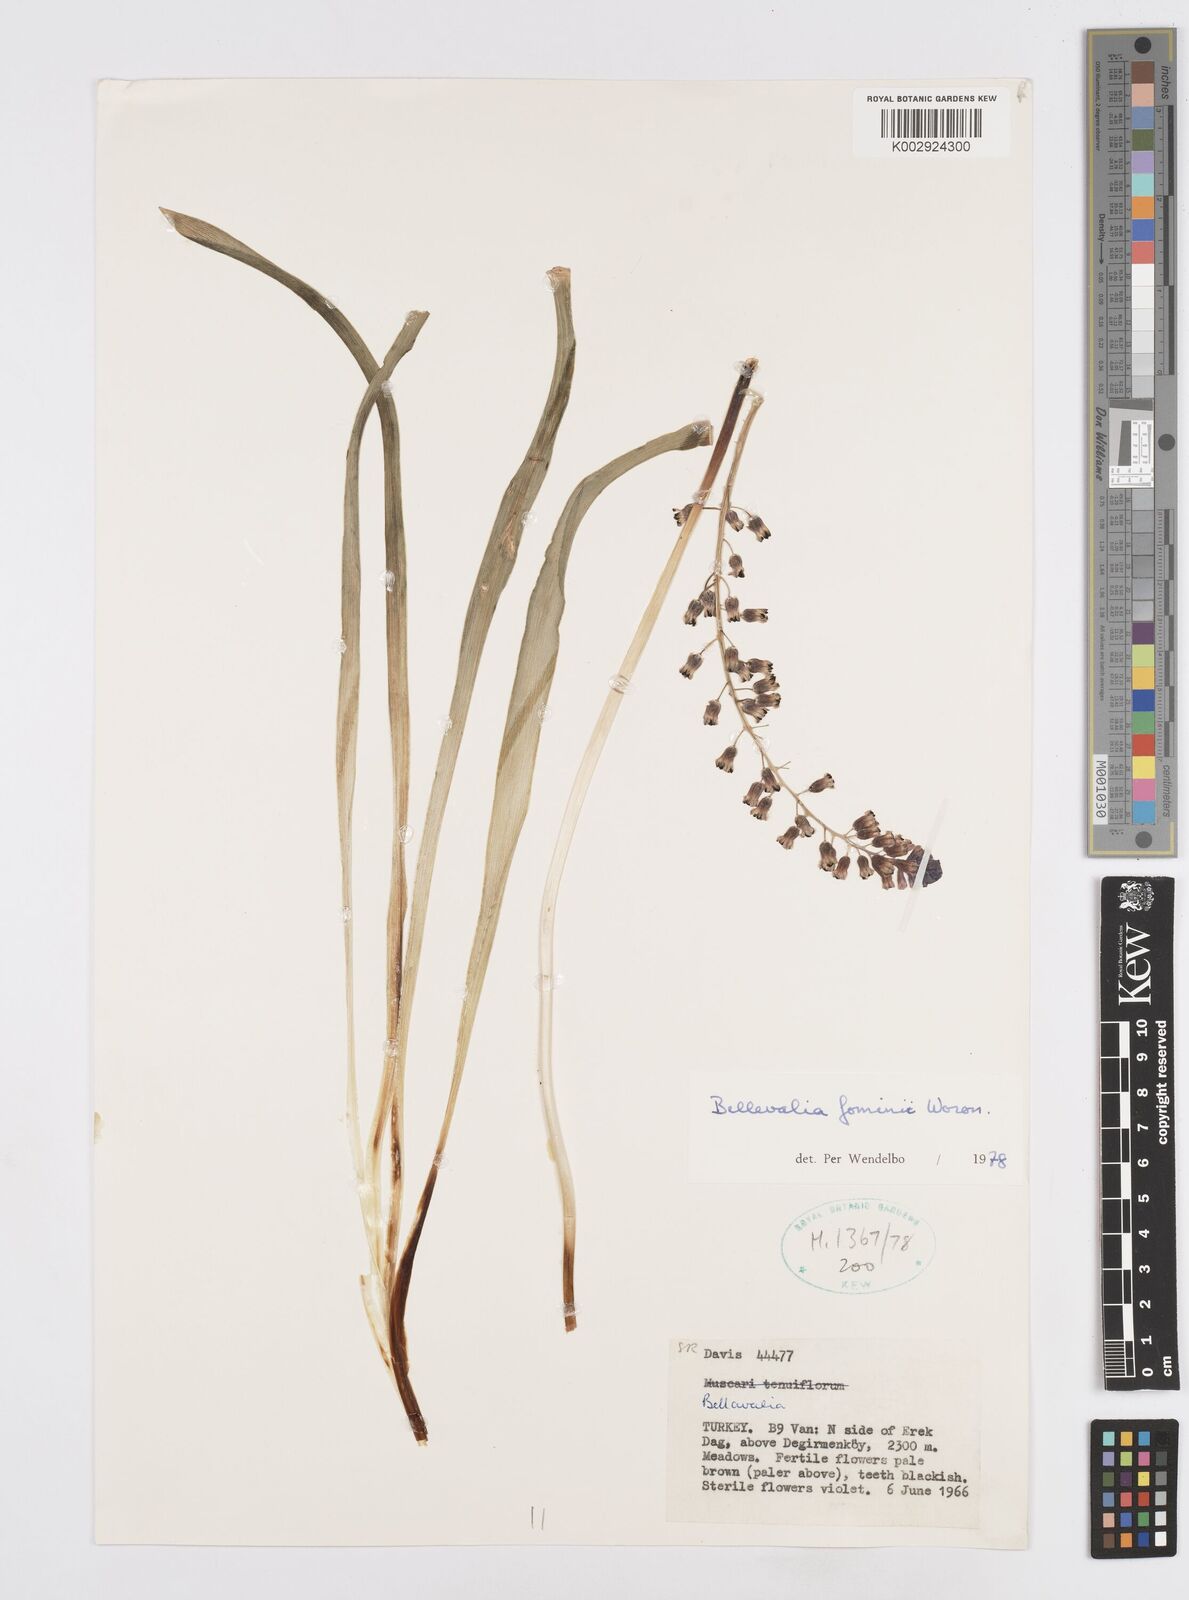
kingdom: Plantae
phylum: Tracheophyta
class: Liliopsida
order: Asparagales
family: Asparagaceae
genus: Bellevalia
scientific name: Bellevalia fominii
